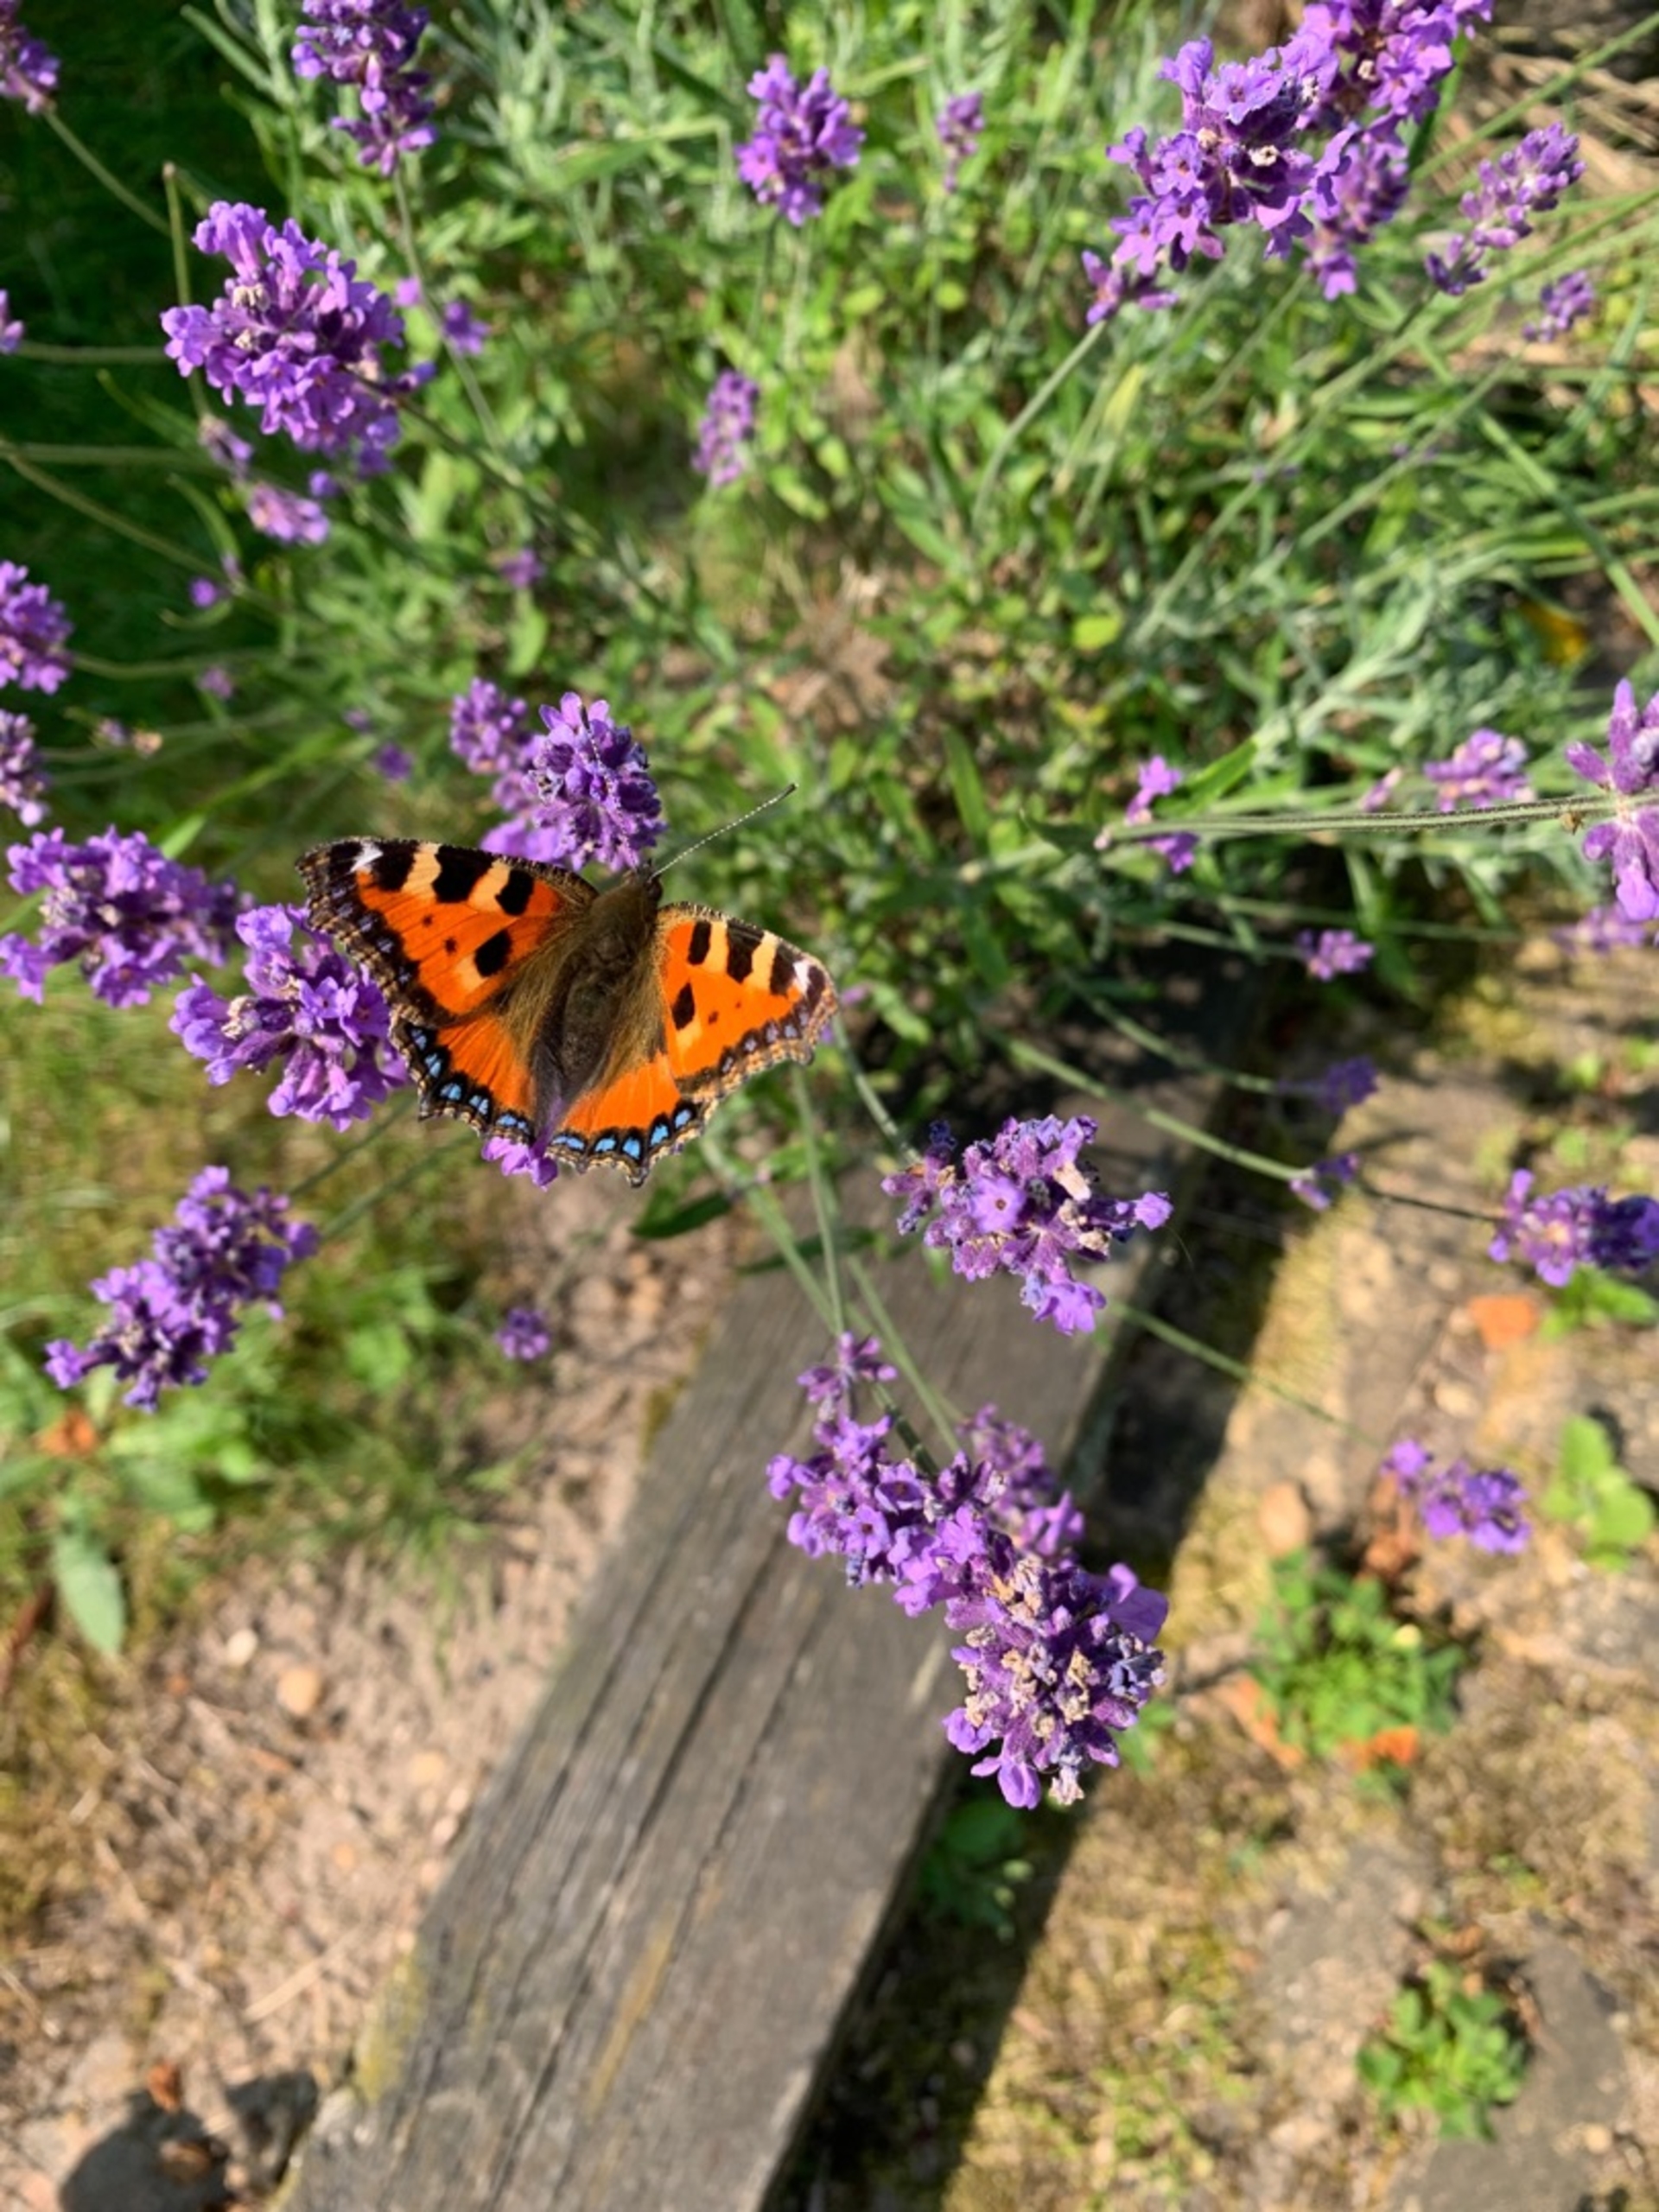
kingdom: Animalia
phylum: Arthropoda
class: Insecta
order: Lepidoptera
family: Nymphalidae
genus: Aglais
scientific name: Aglais urticae
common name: Nældens takvinge
